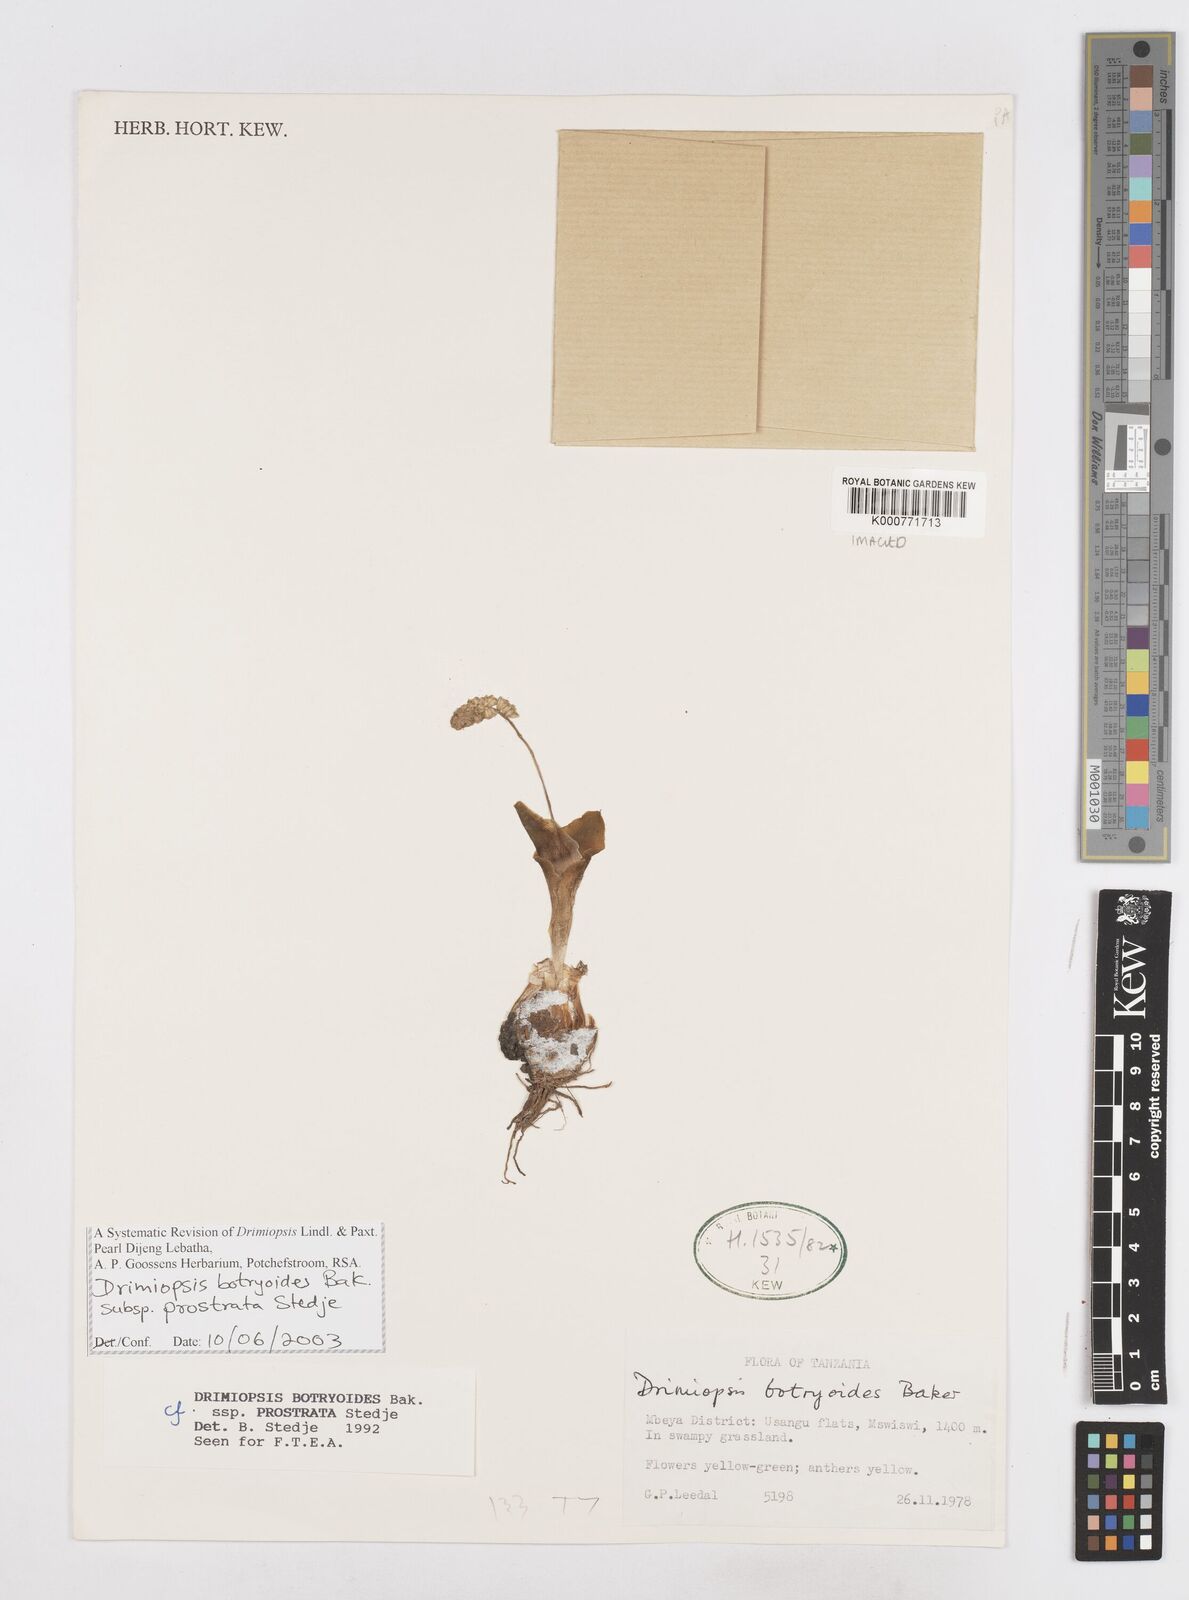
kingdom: Plantae
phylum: Tracheophyta
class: Liliopsida
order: Asparagales
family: Asparagaceae
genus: Drimiopsis
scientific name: Drimiopsis botryoides
